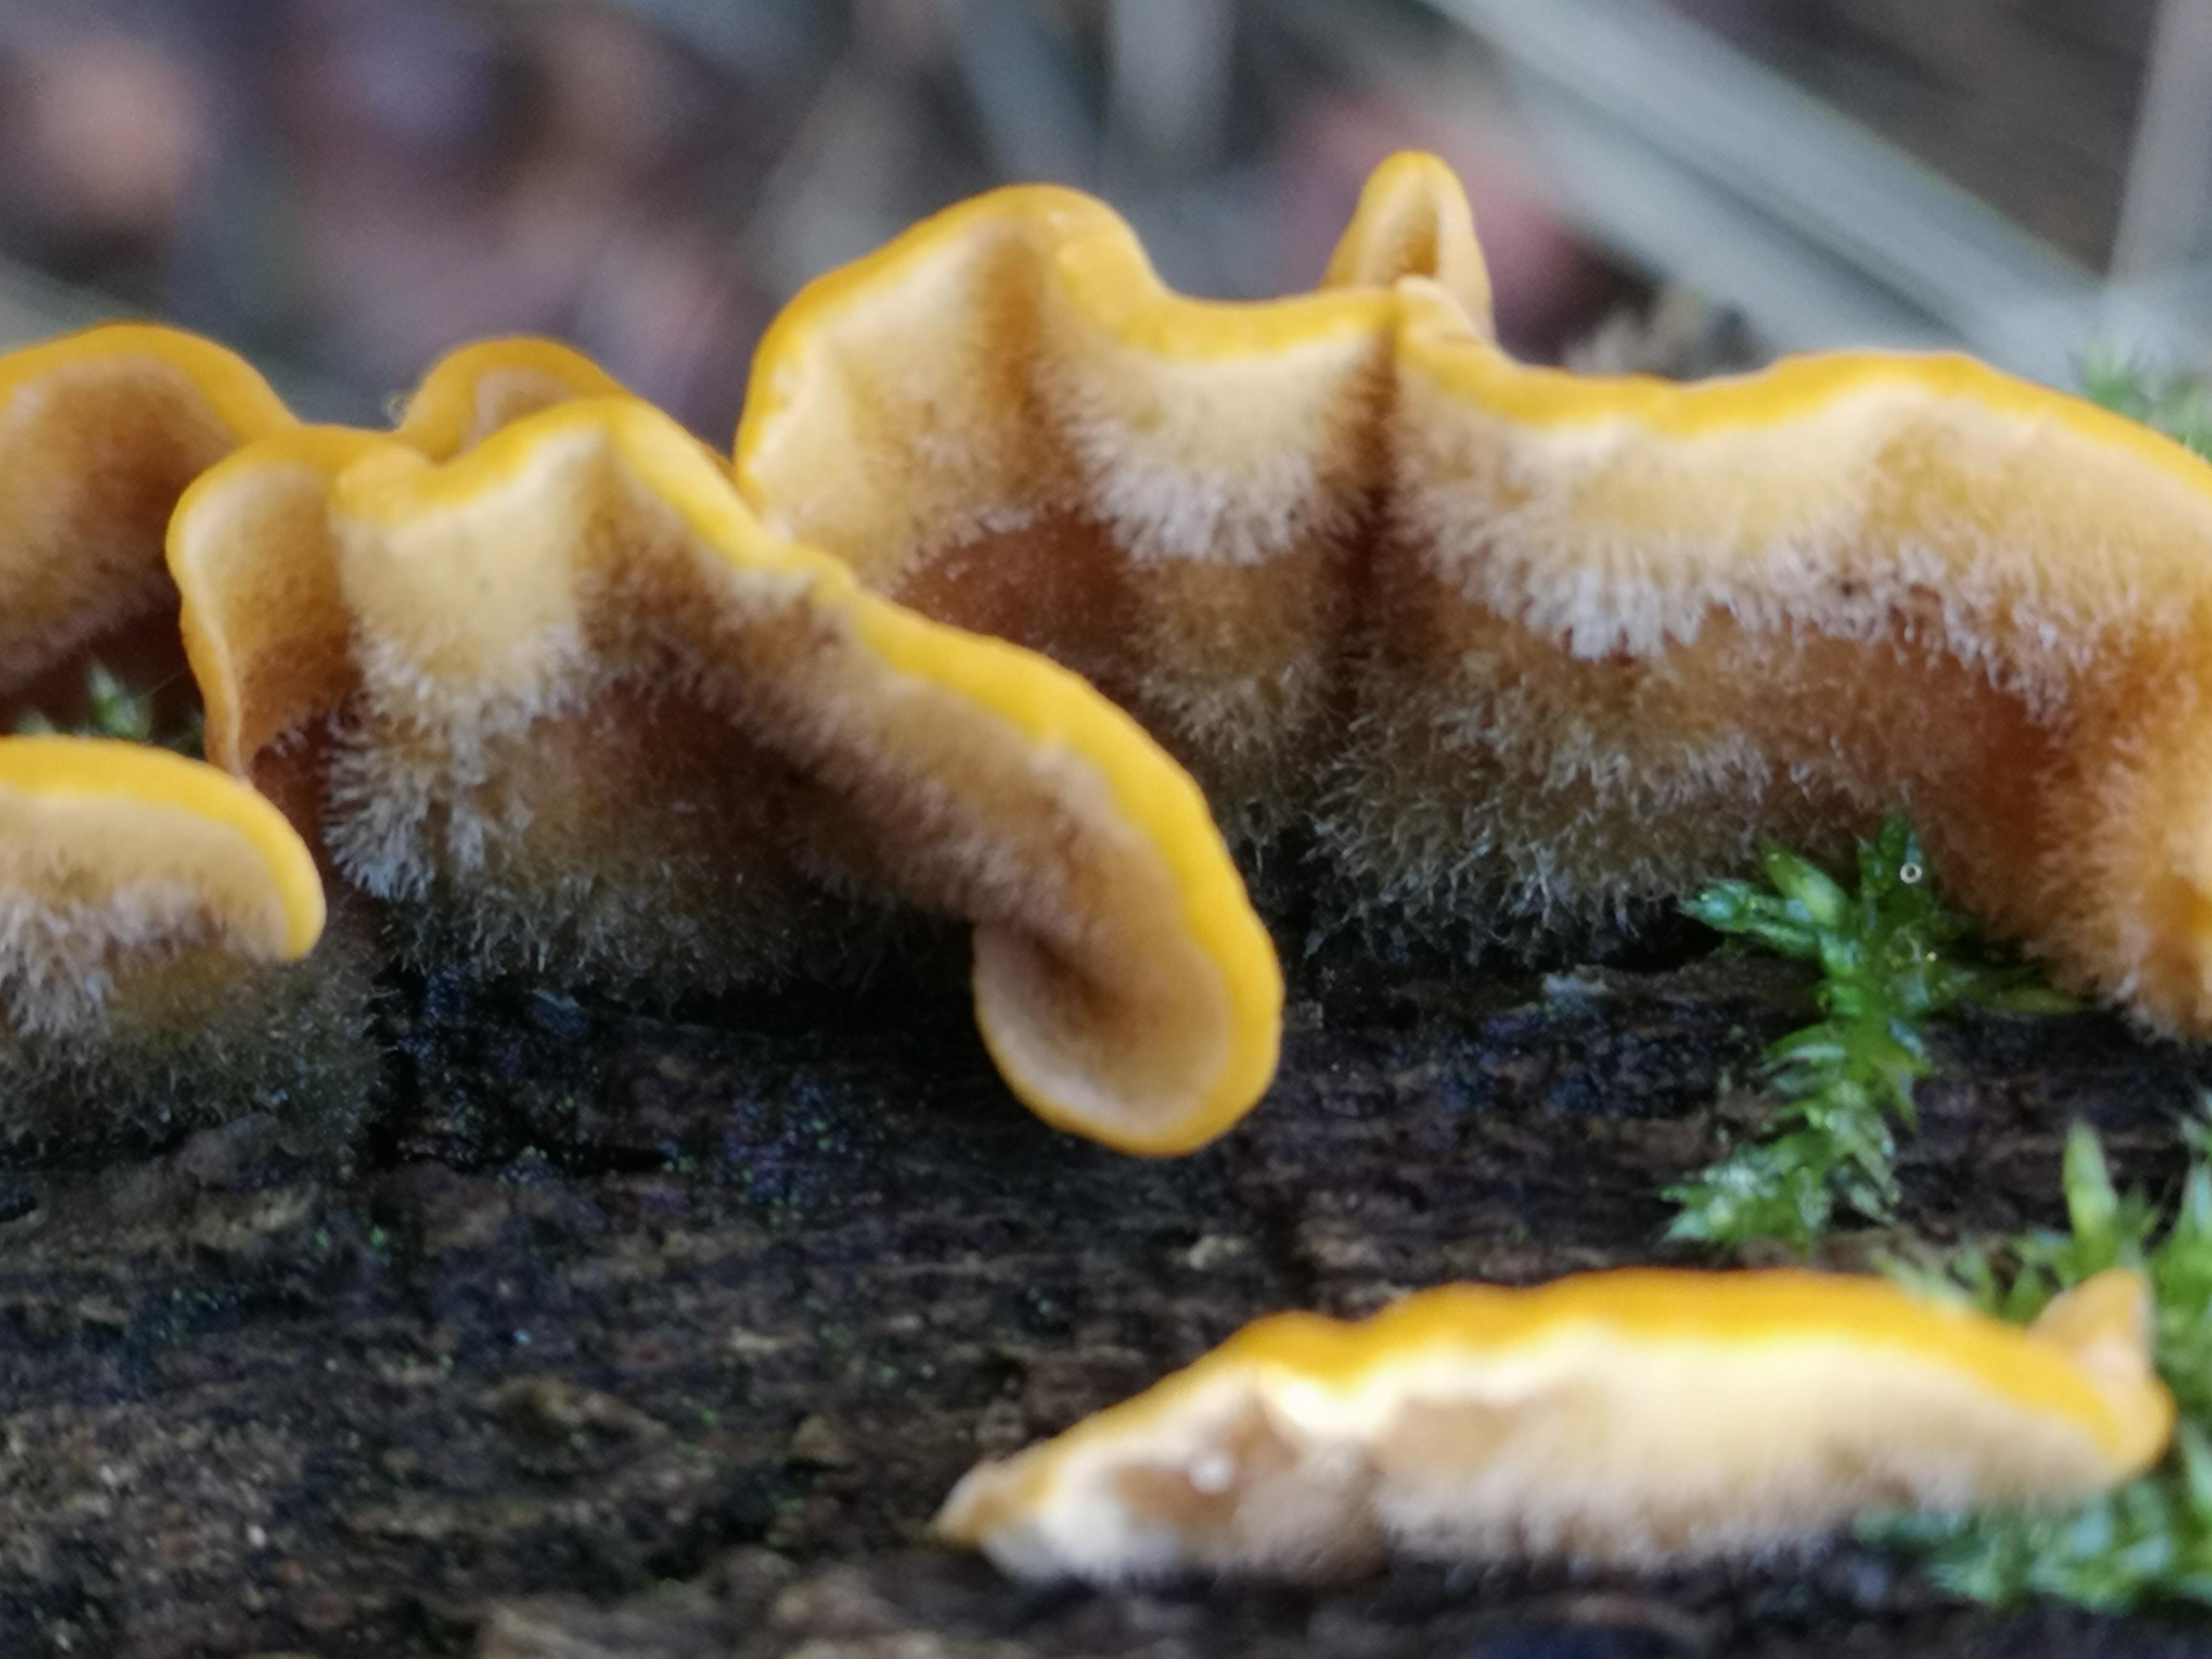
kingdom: Fungi
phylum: Basidiomycota
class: Agaricomycetes
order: Russulales
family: Stereaceae
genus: Stereum
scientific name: Stereum hirsutum
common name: håret lædersvamp
